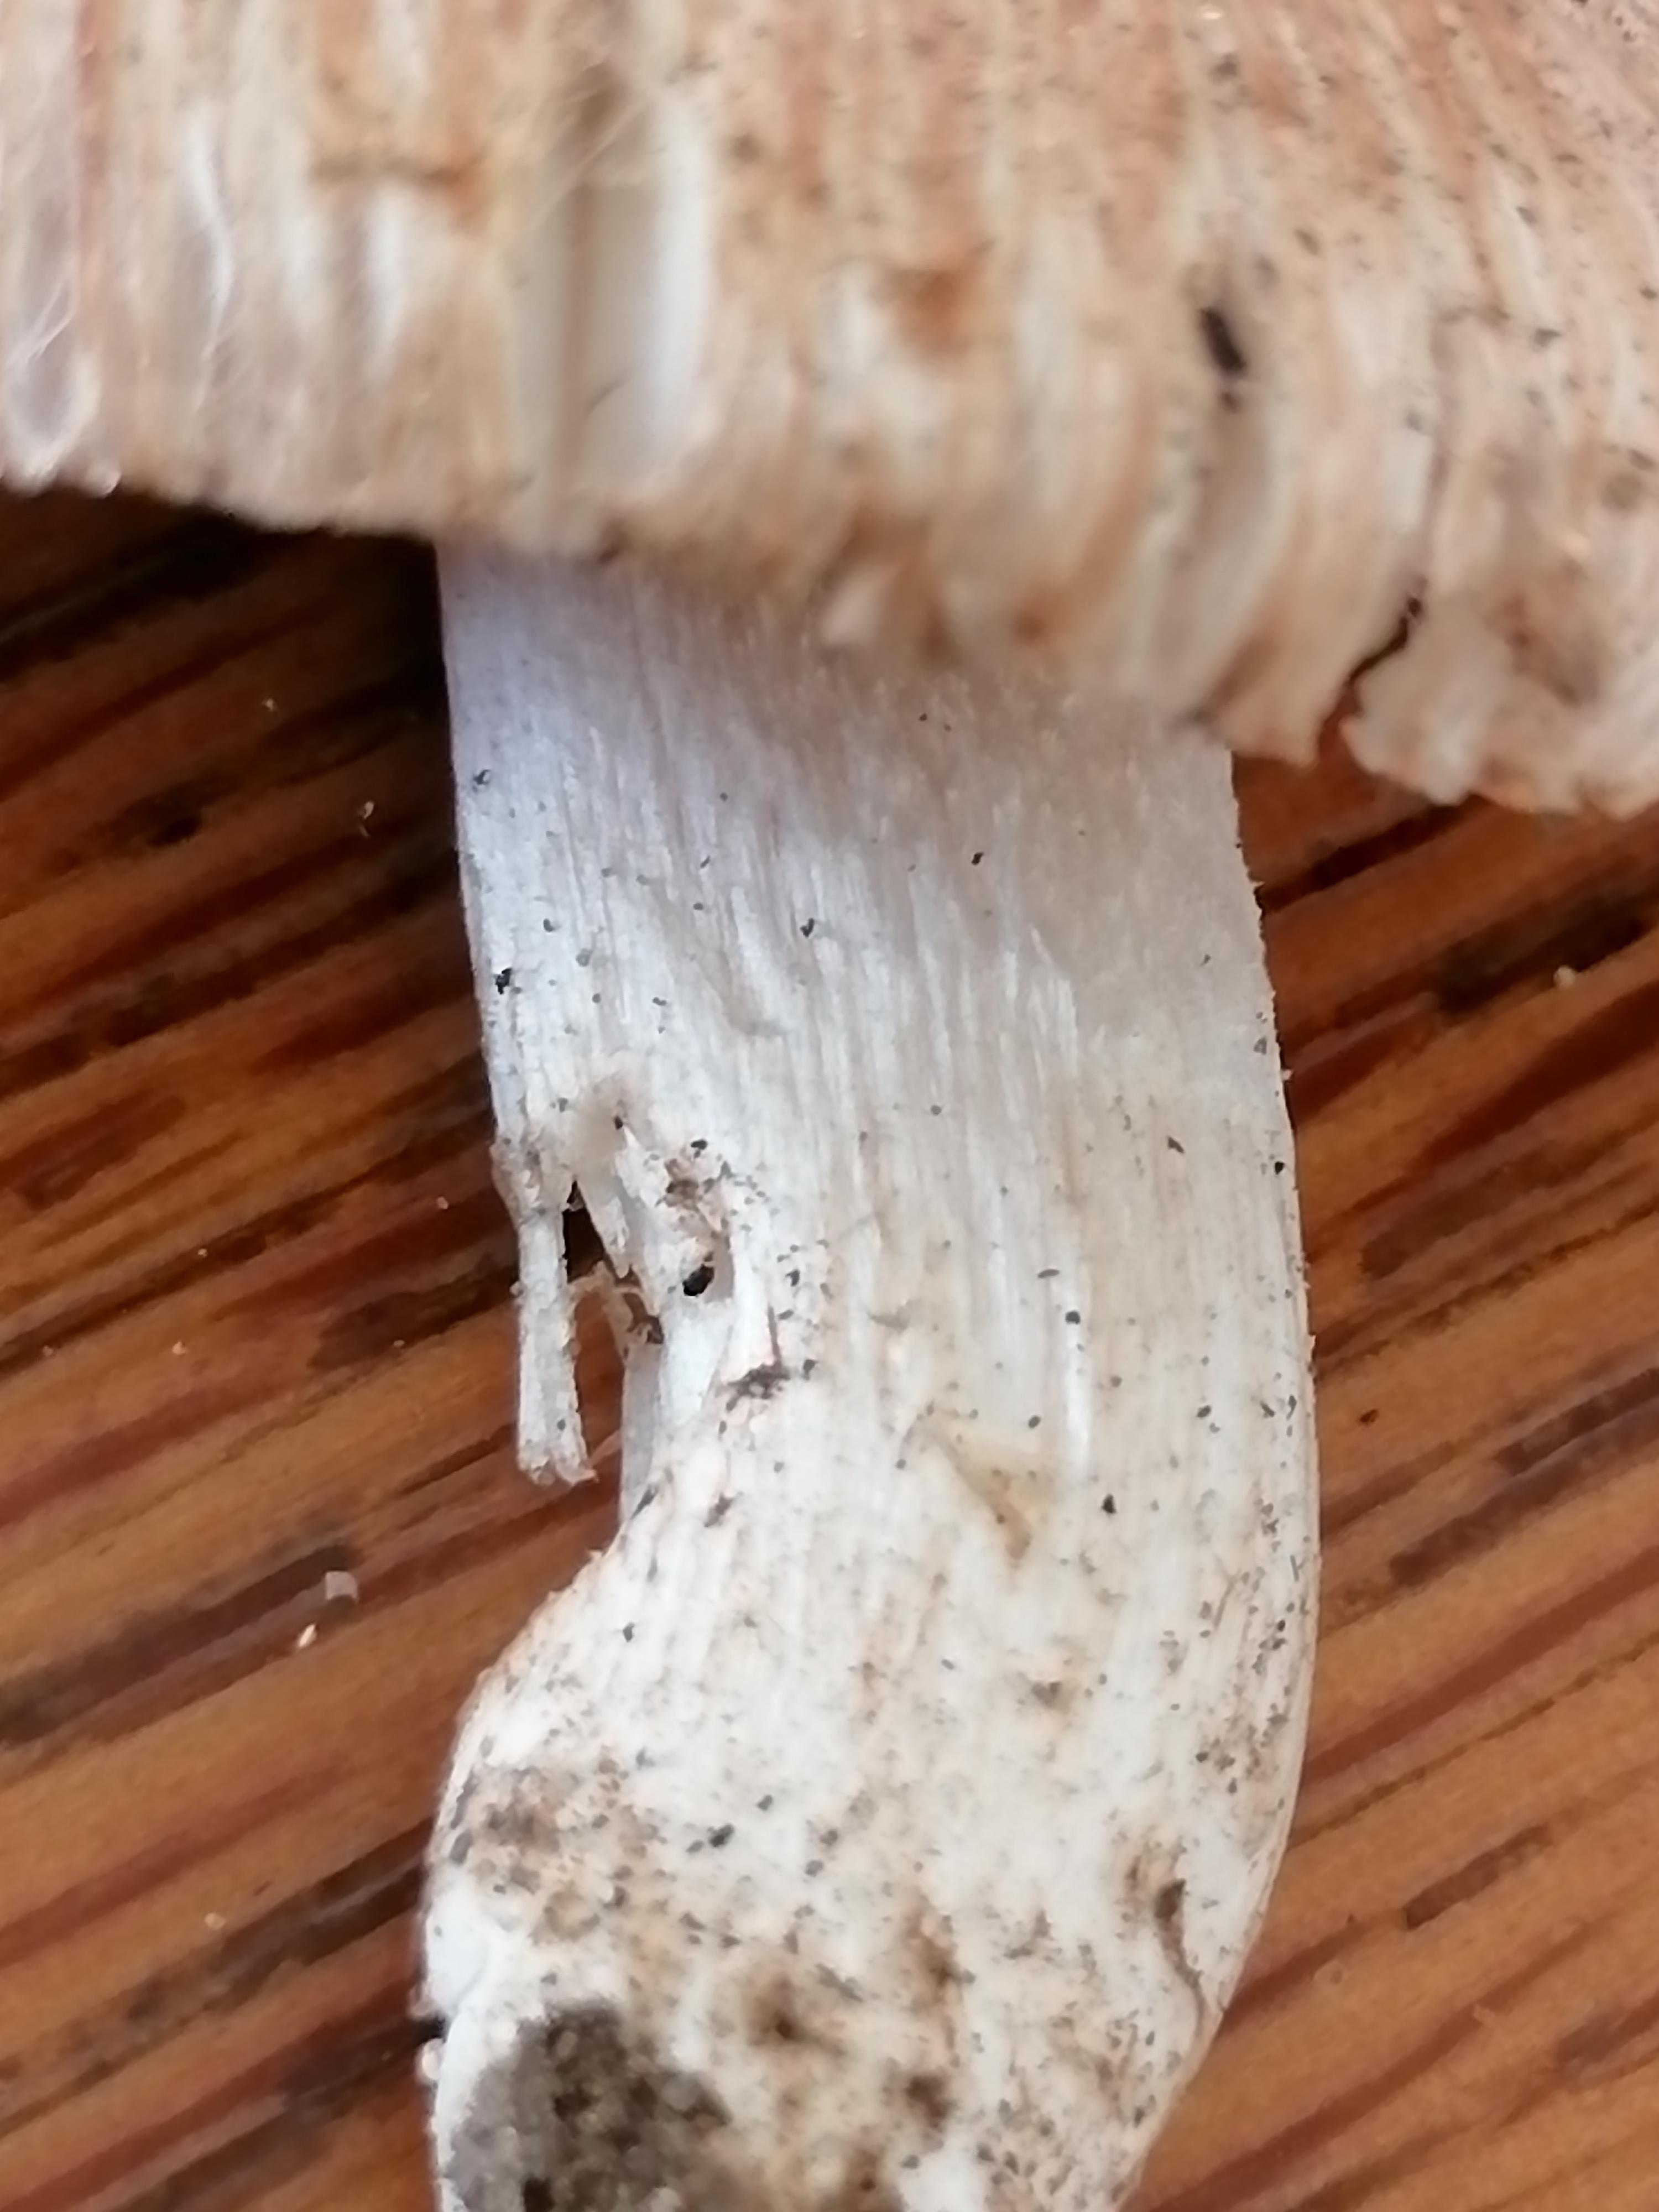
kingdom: Fungi
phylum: Basidiomycota
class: Agaricomycetes
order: Agaricales
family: Inocybaceae
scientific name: Inocybaceae
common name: trævlhatfamilien
